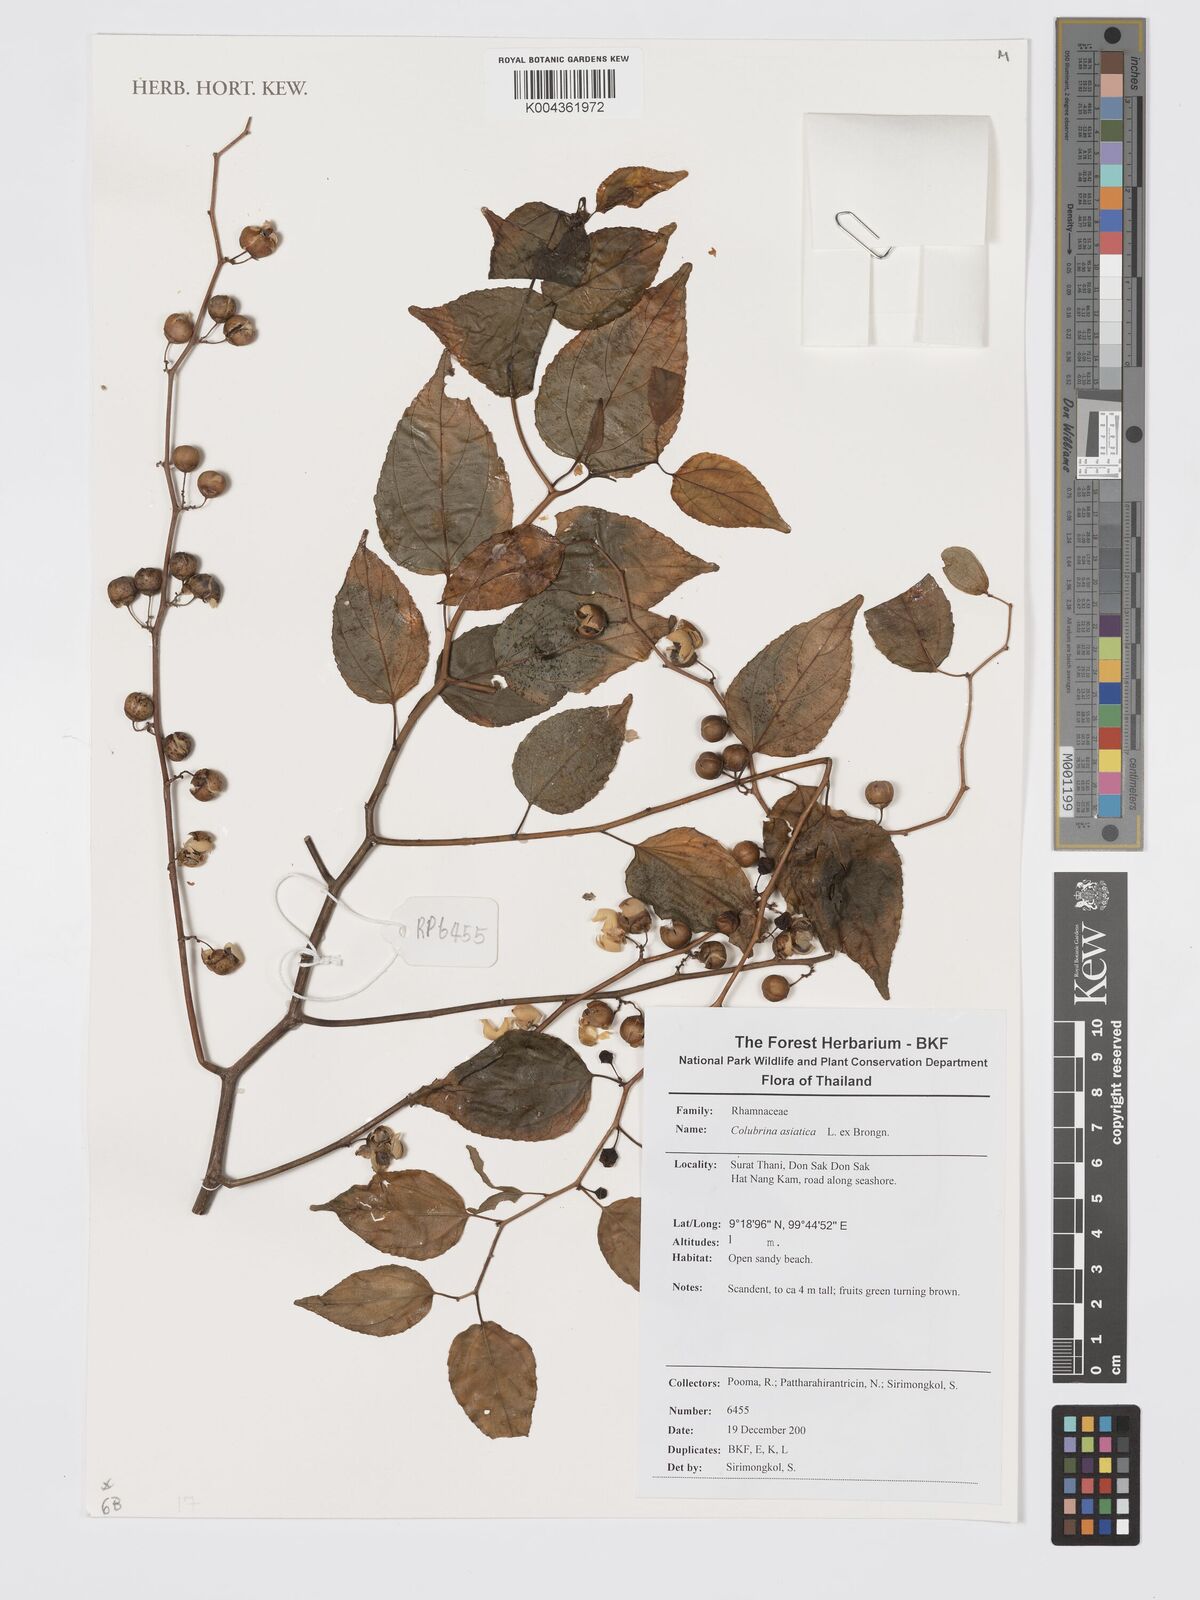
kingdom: Plantae
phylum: Tracheophyta
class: Magnoliopsida
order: Rosales
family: Rhamnaceae
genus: Colubrina
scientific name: Colubrina asiatica
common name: Asian nakedwood
